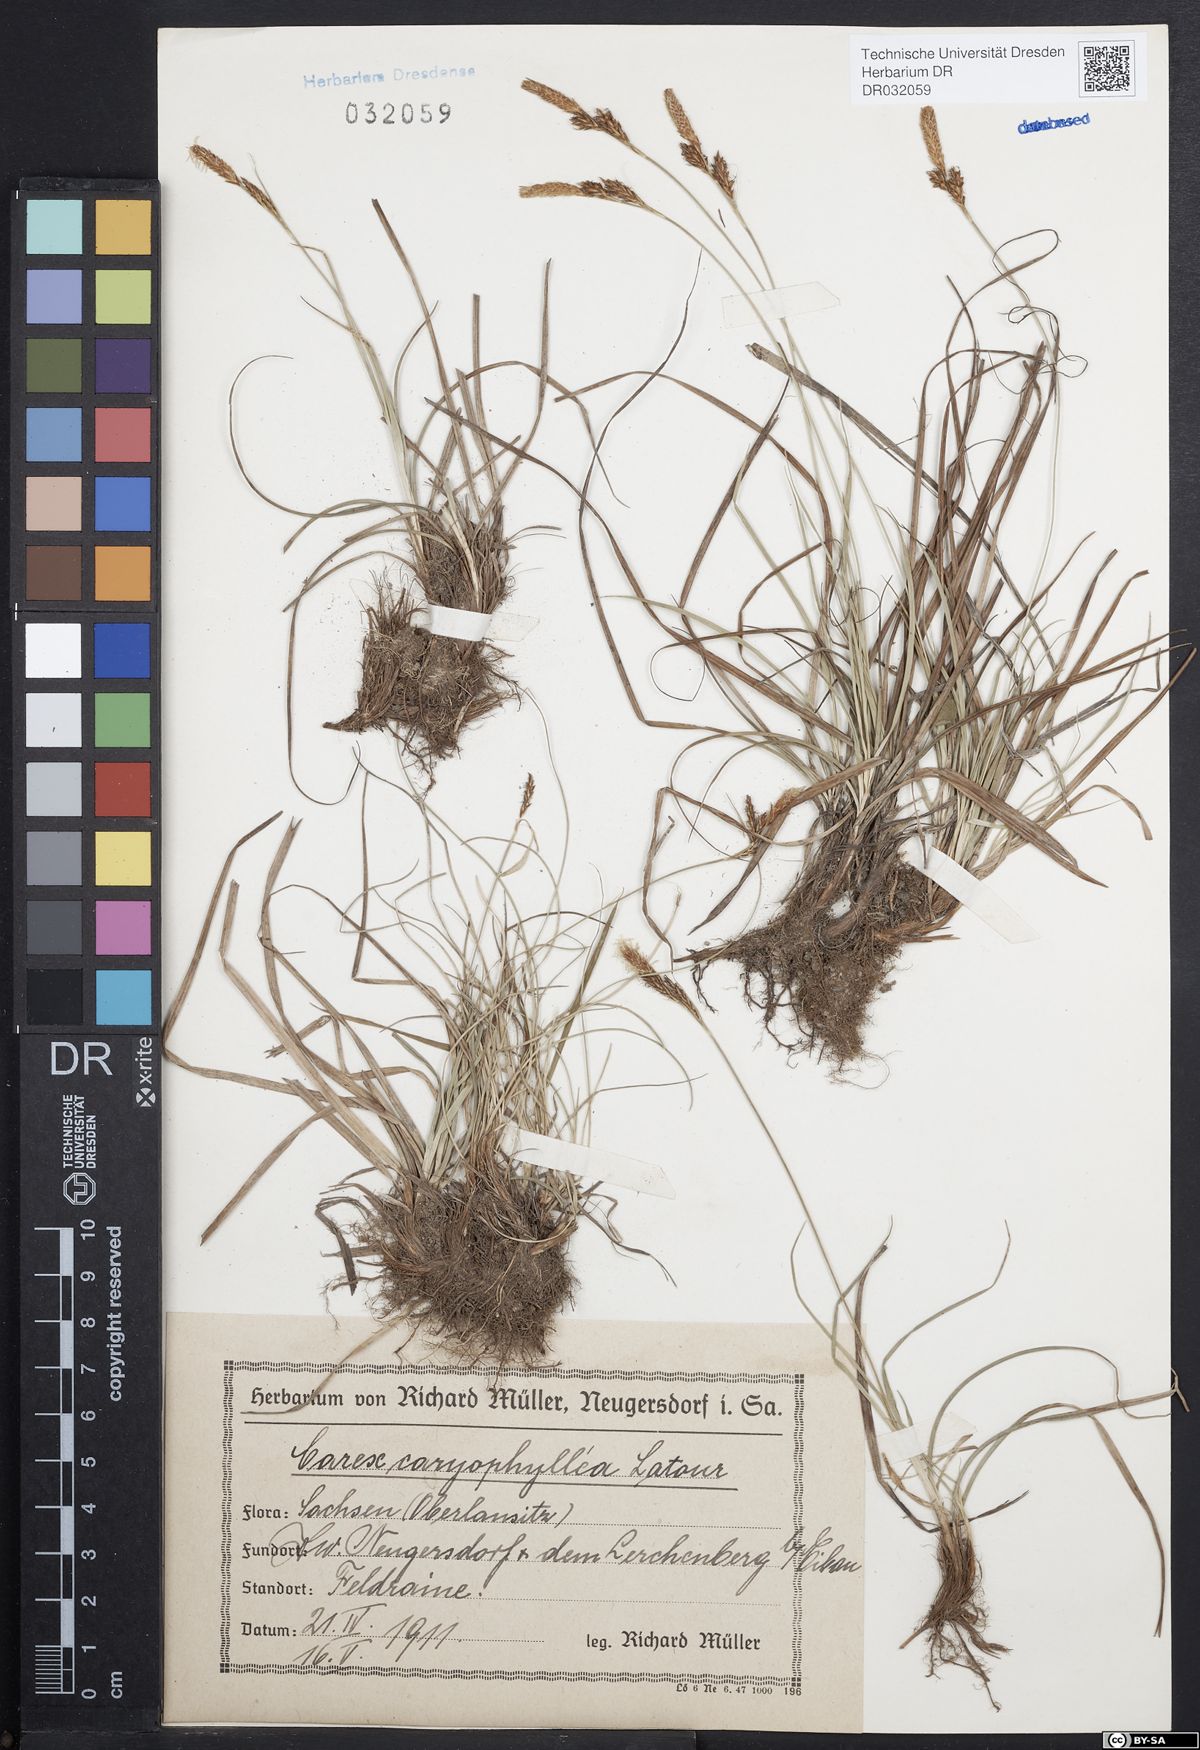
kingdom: Plantae
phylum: Tracheophyta
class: Liliopsida
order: Poales
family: Cyperaceae
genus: Carex
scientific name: Carex caryophyllea
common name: Spring sedge
